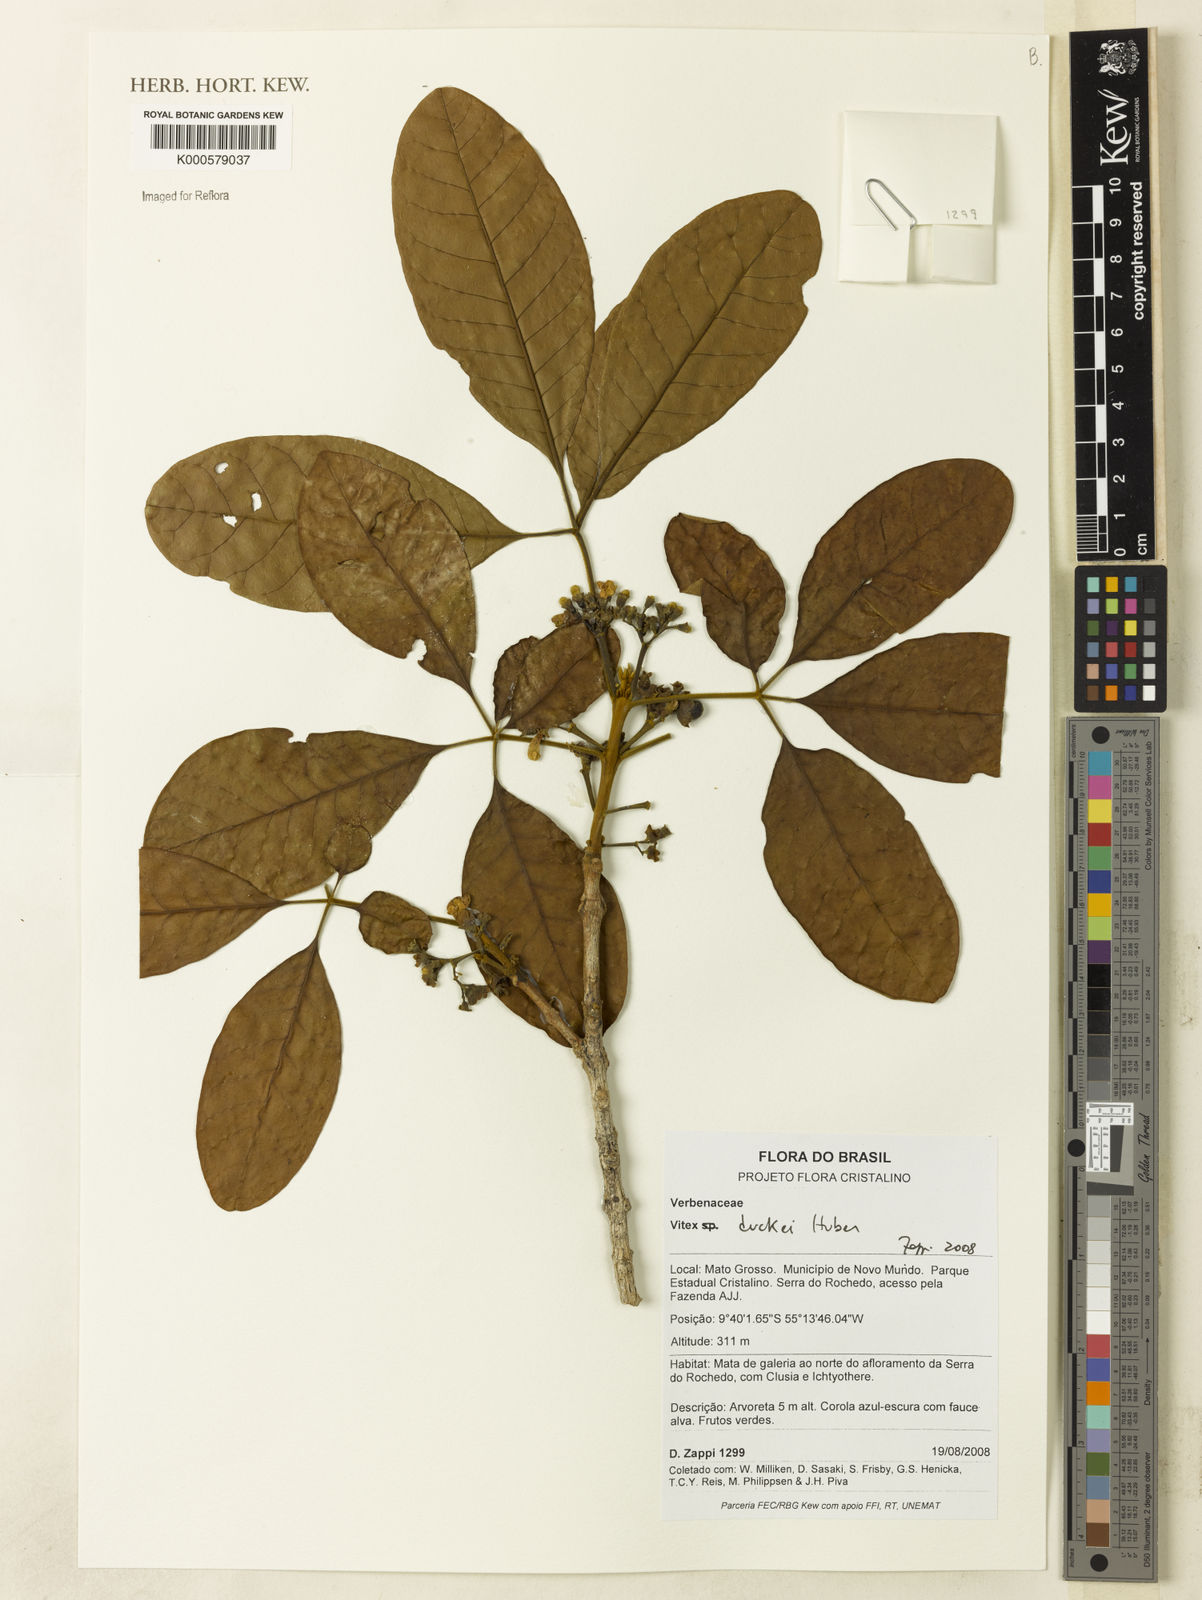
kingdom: Plantae
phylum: Tracheophyta
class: Magnoliopsida
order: Lamiales
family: Lamiaceae
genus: Vitex
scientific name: Vitex duckei
